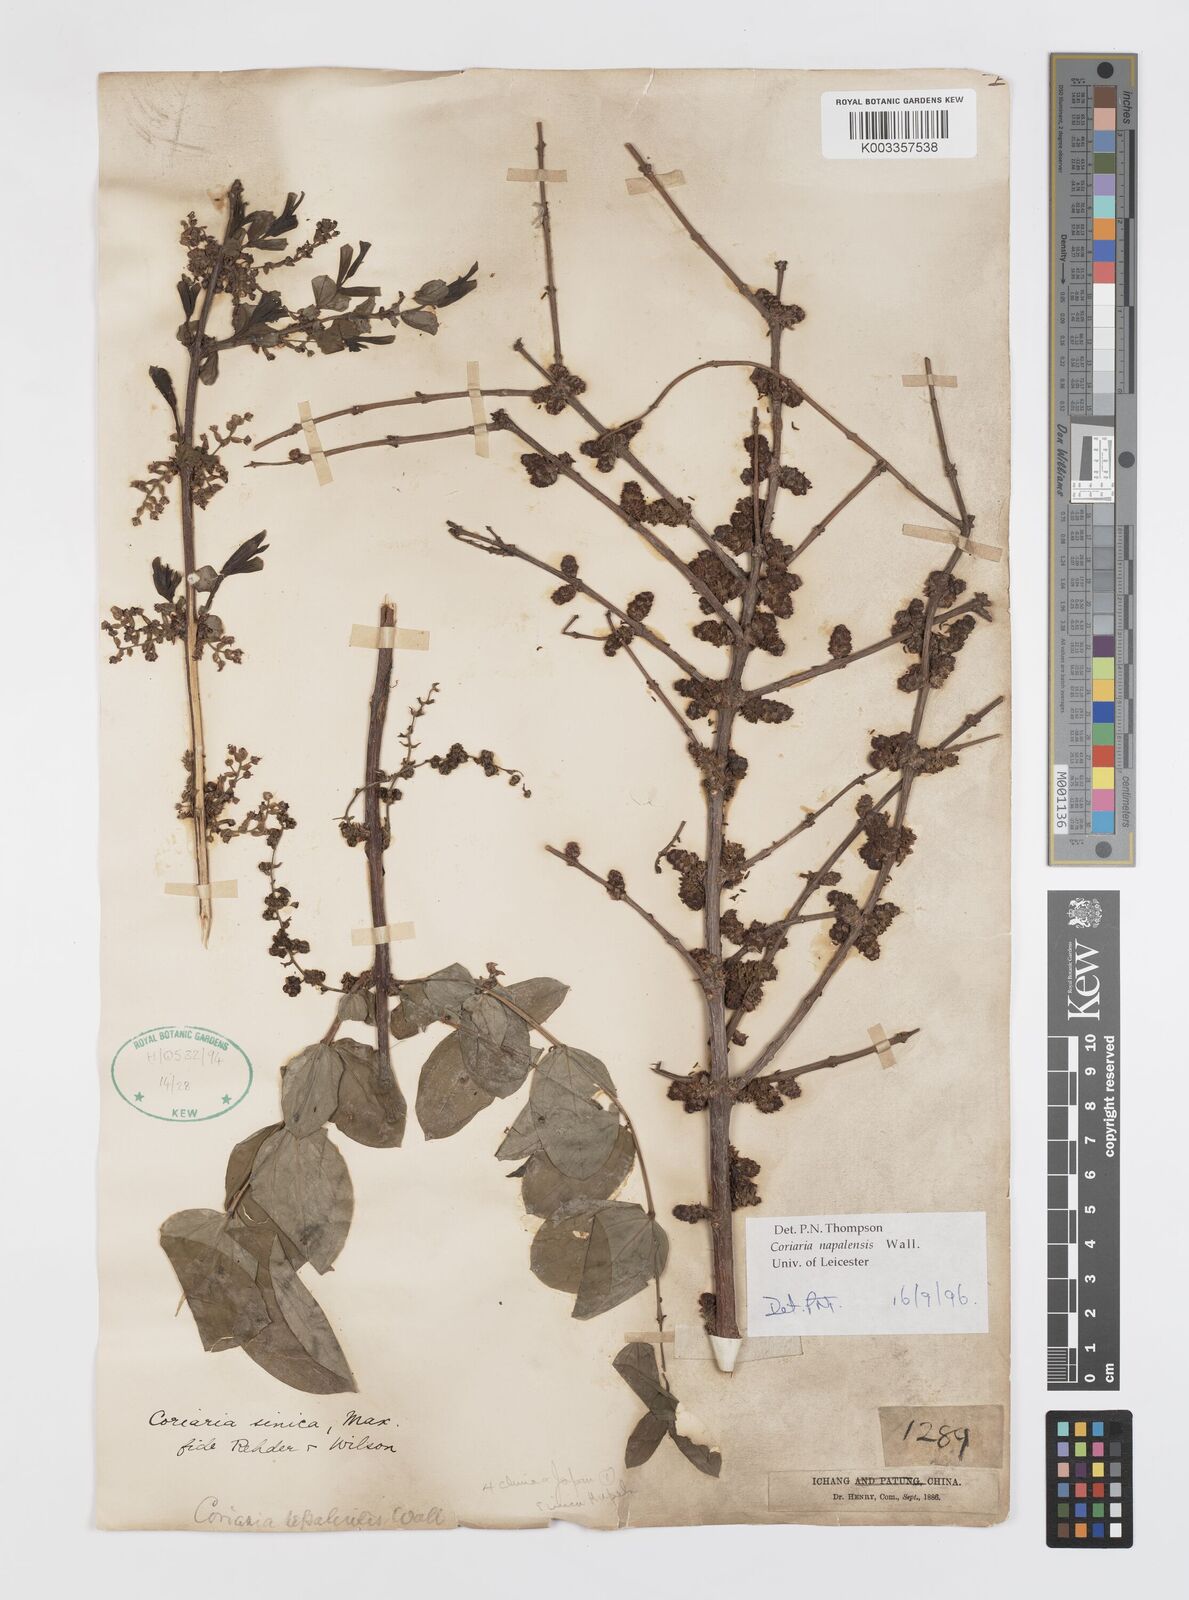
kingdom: Plantae
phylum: Tracheophyta
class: Magnoliopsida
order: Cucurbitales
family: Coriariaceae
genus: Coriaria
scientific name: Coriaria napalensis
